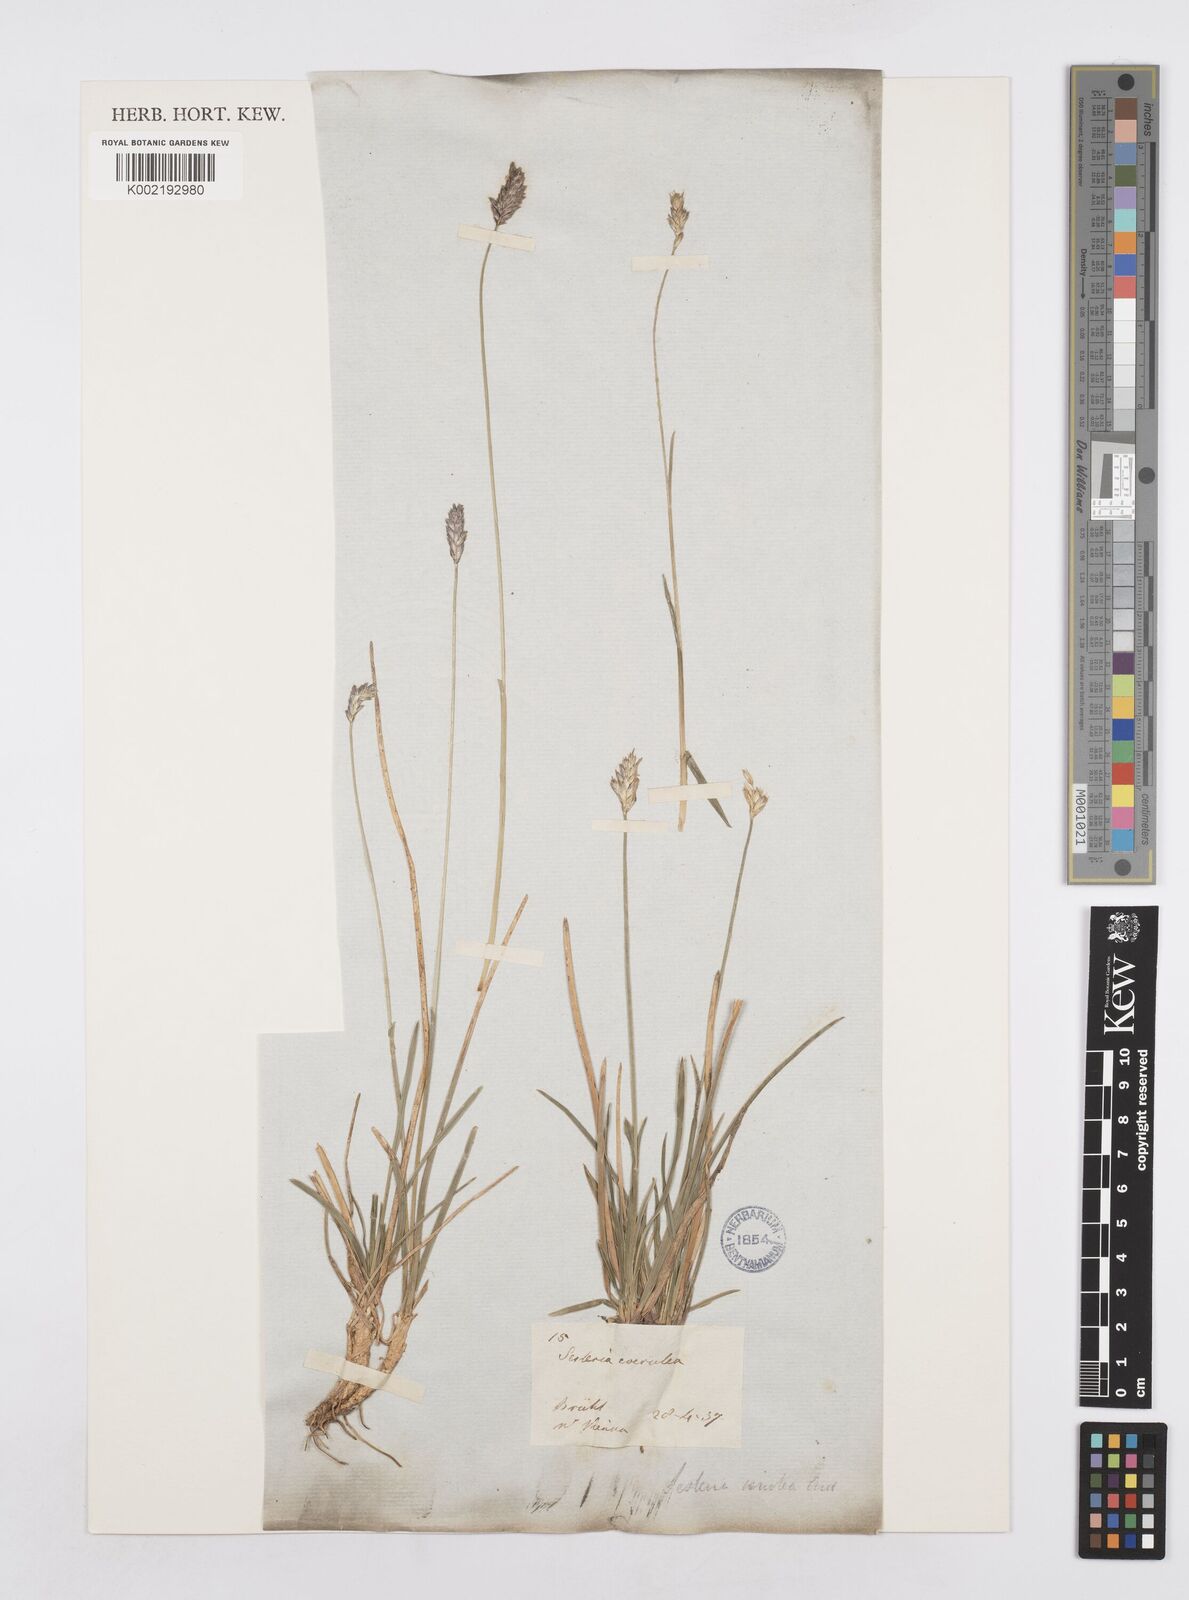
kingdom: Plantae
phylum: Tracheophyta
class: Liliopsida
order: Poales
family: Poaceae
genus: Sesleria
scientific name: Sesleria caerulea
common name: Blue moor-grass
